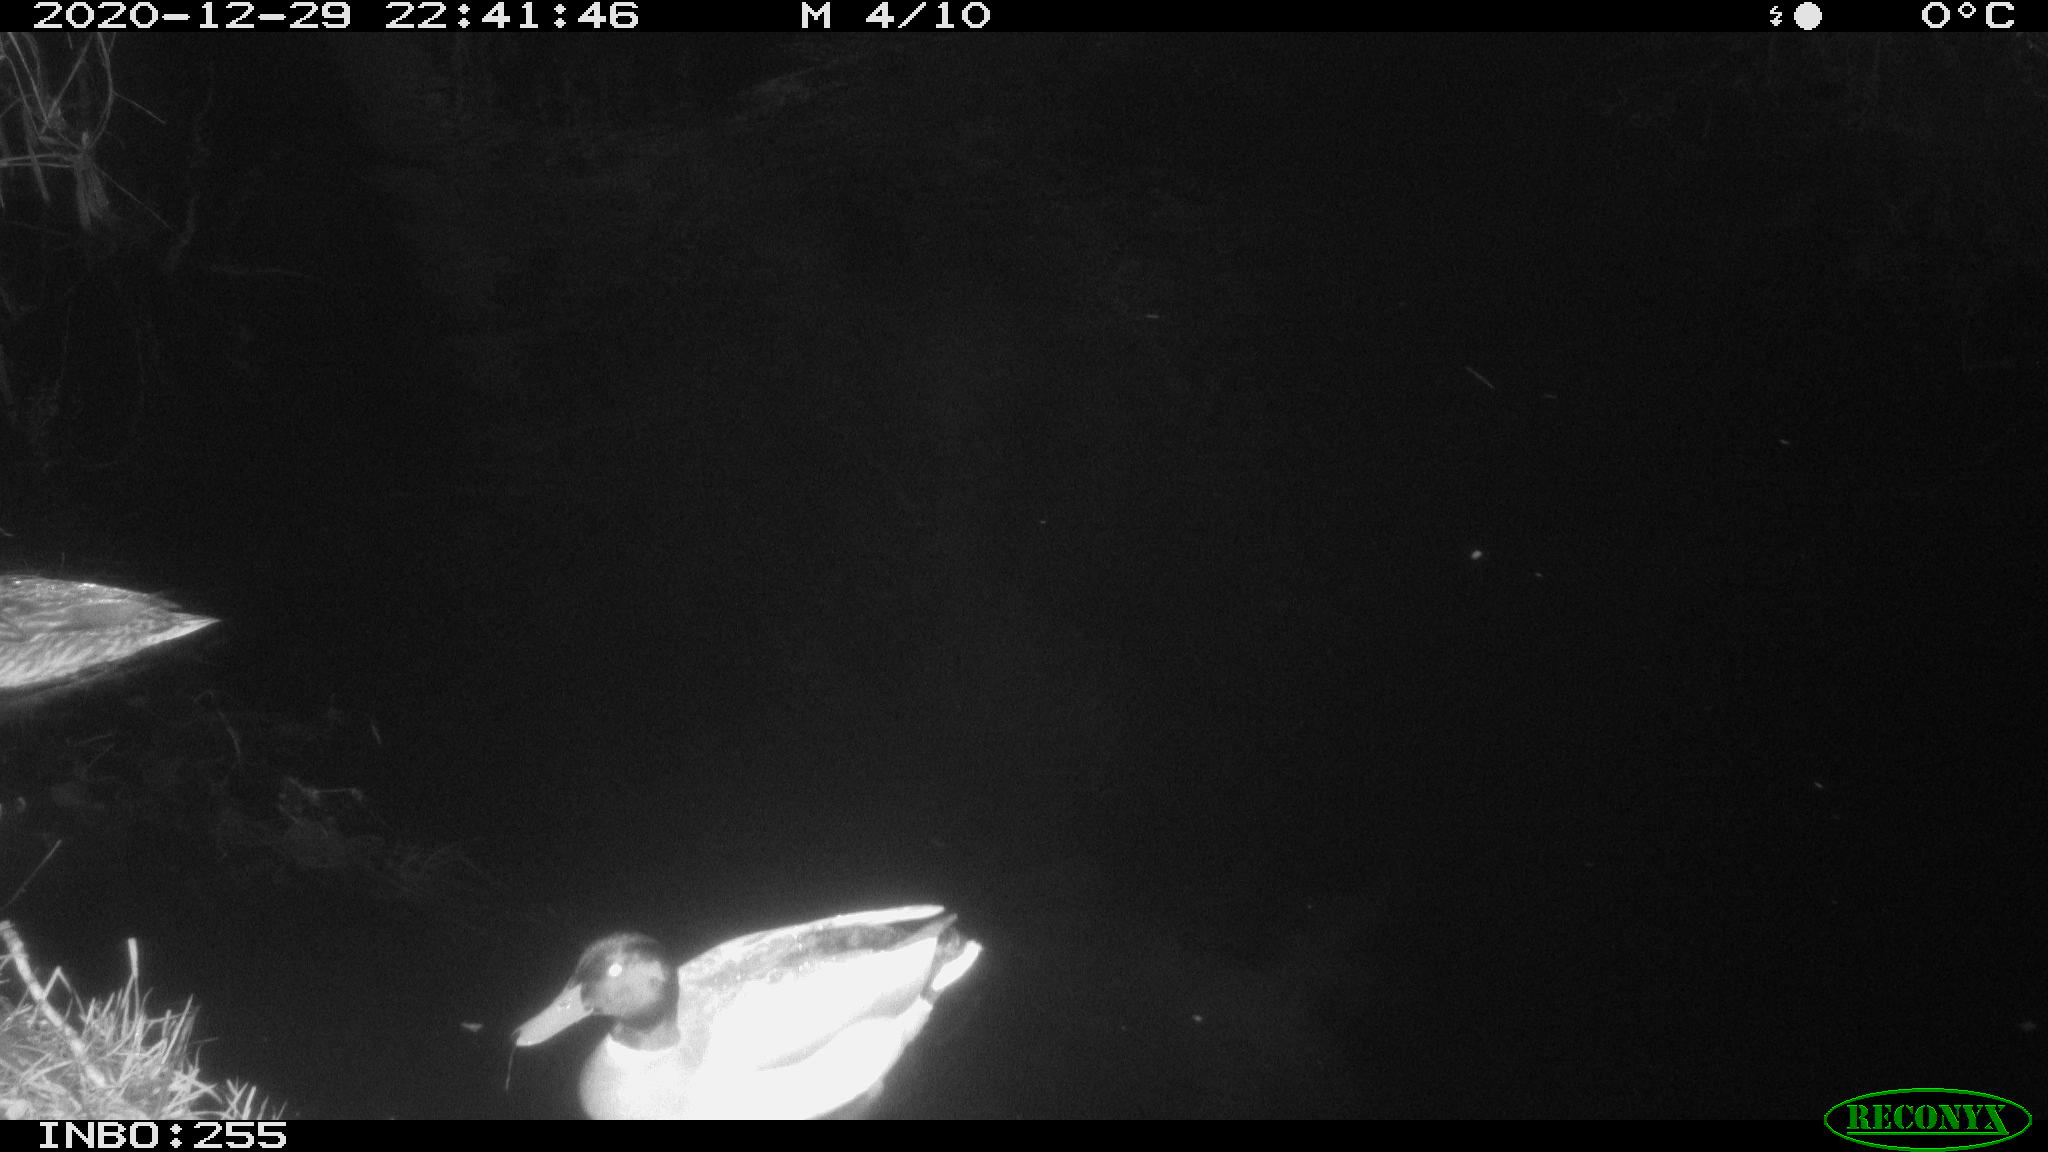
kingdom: Animalia
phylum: Chordata
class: Aves
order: Anseriformes
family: Anatidae
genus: Anas
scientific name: Anas platyrhynchos
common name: Mallard
